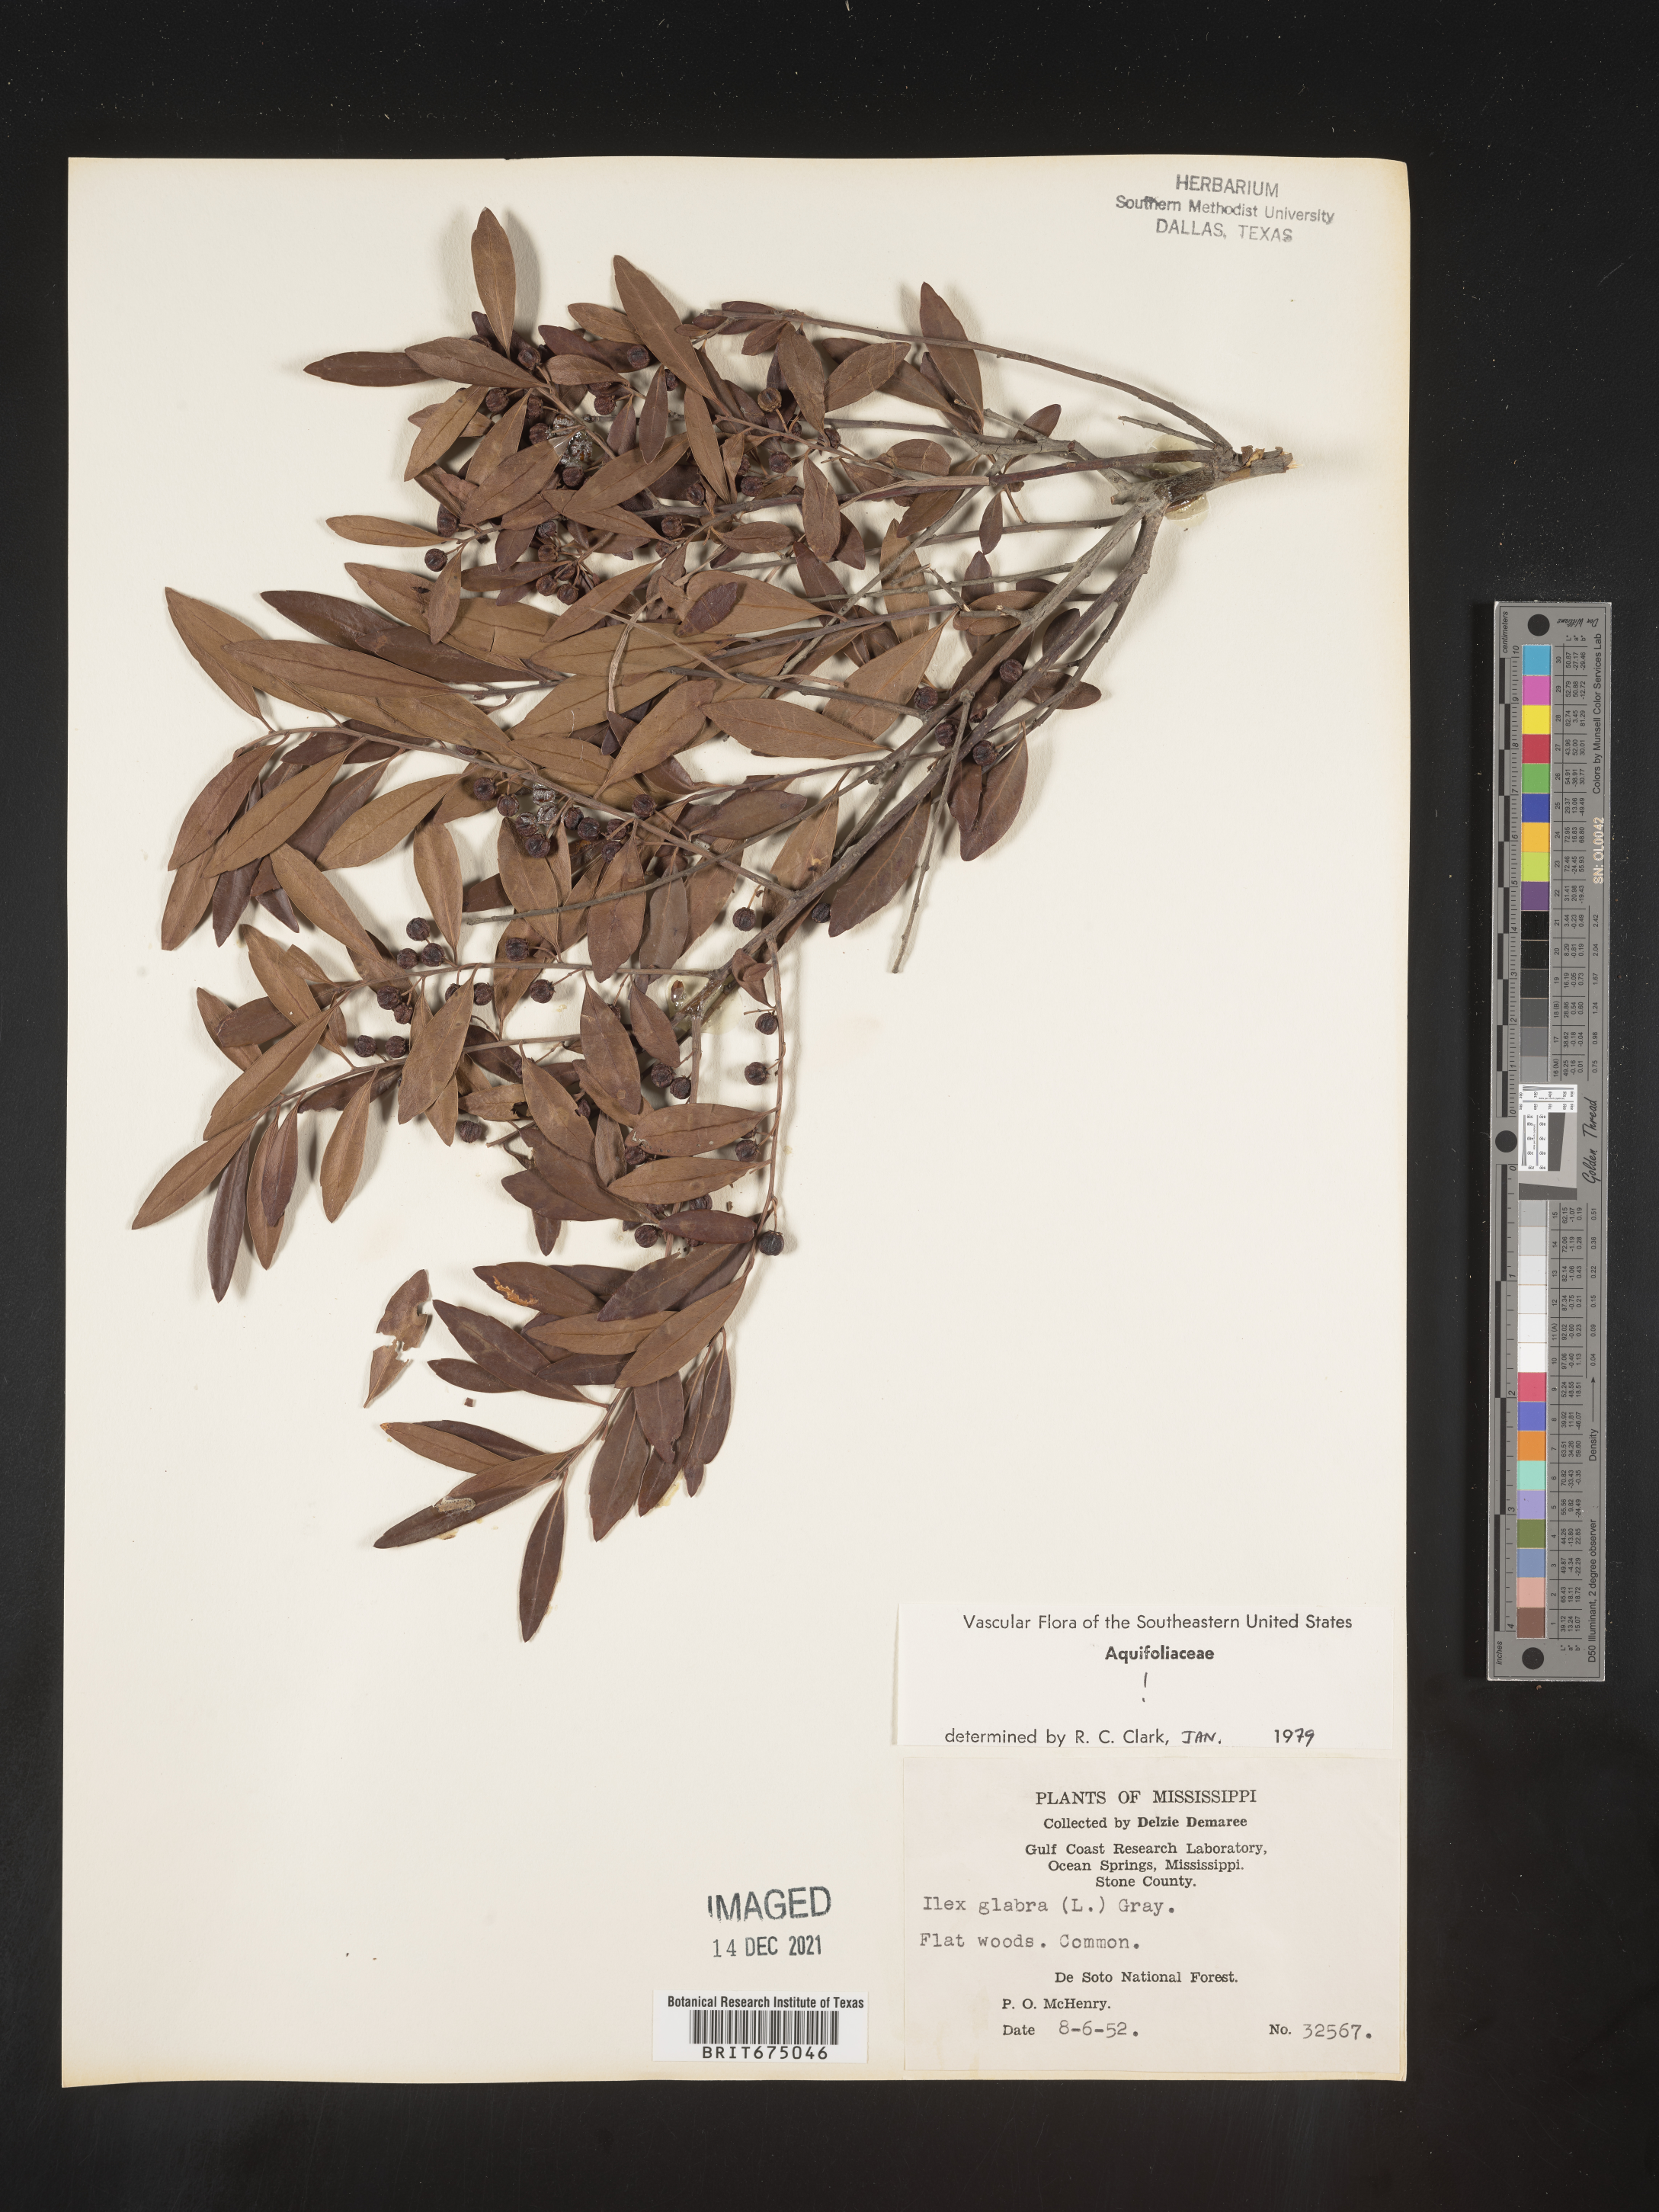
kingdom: Plantae
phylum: Tracheophyta
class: Magnoliopsida
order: Aquifoliales
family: Aquifoliaceae
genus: Ilex
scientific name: Ilex glabra
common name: Bitter gallberry
